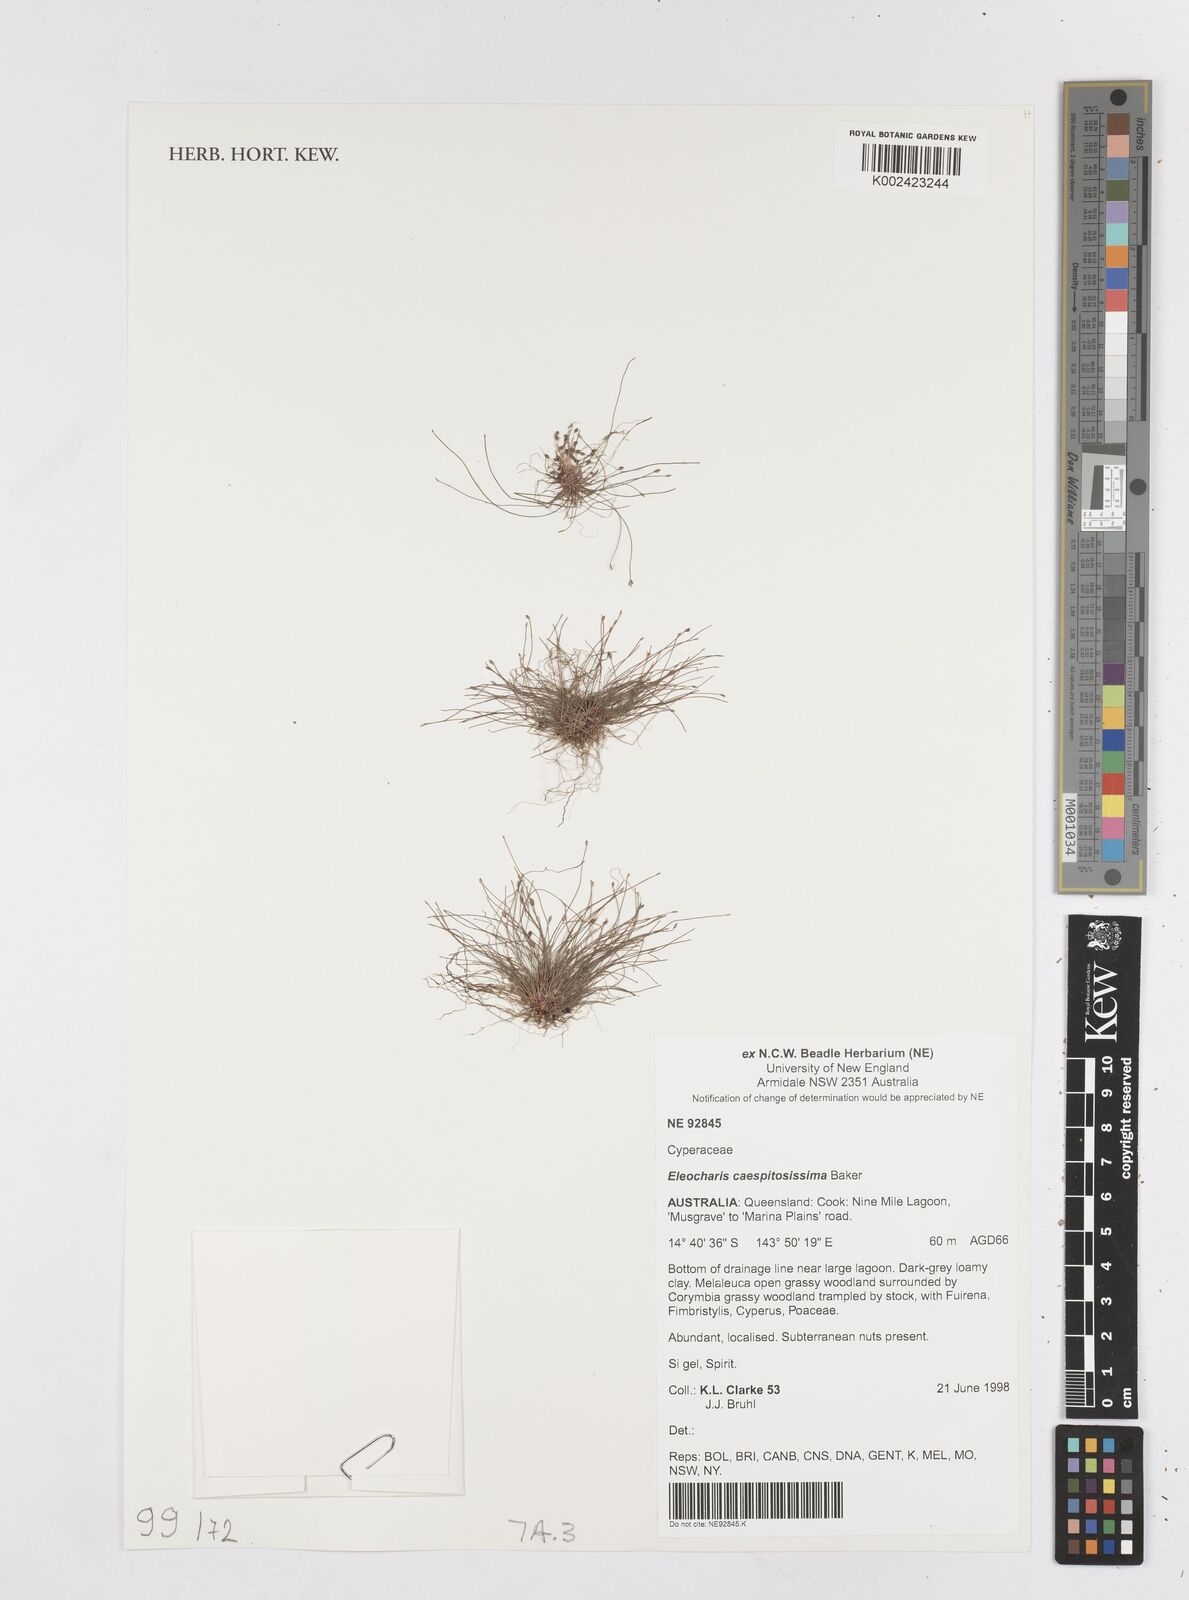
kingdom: Plantae
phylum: Tracheophyta
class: Liliopsida
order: Poales
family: Cyperaceae
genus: Eleocharis
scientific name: Eleocharis caespitosissima
